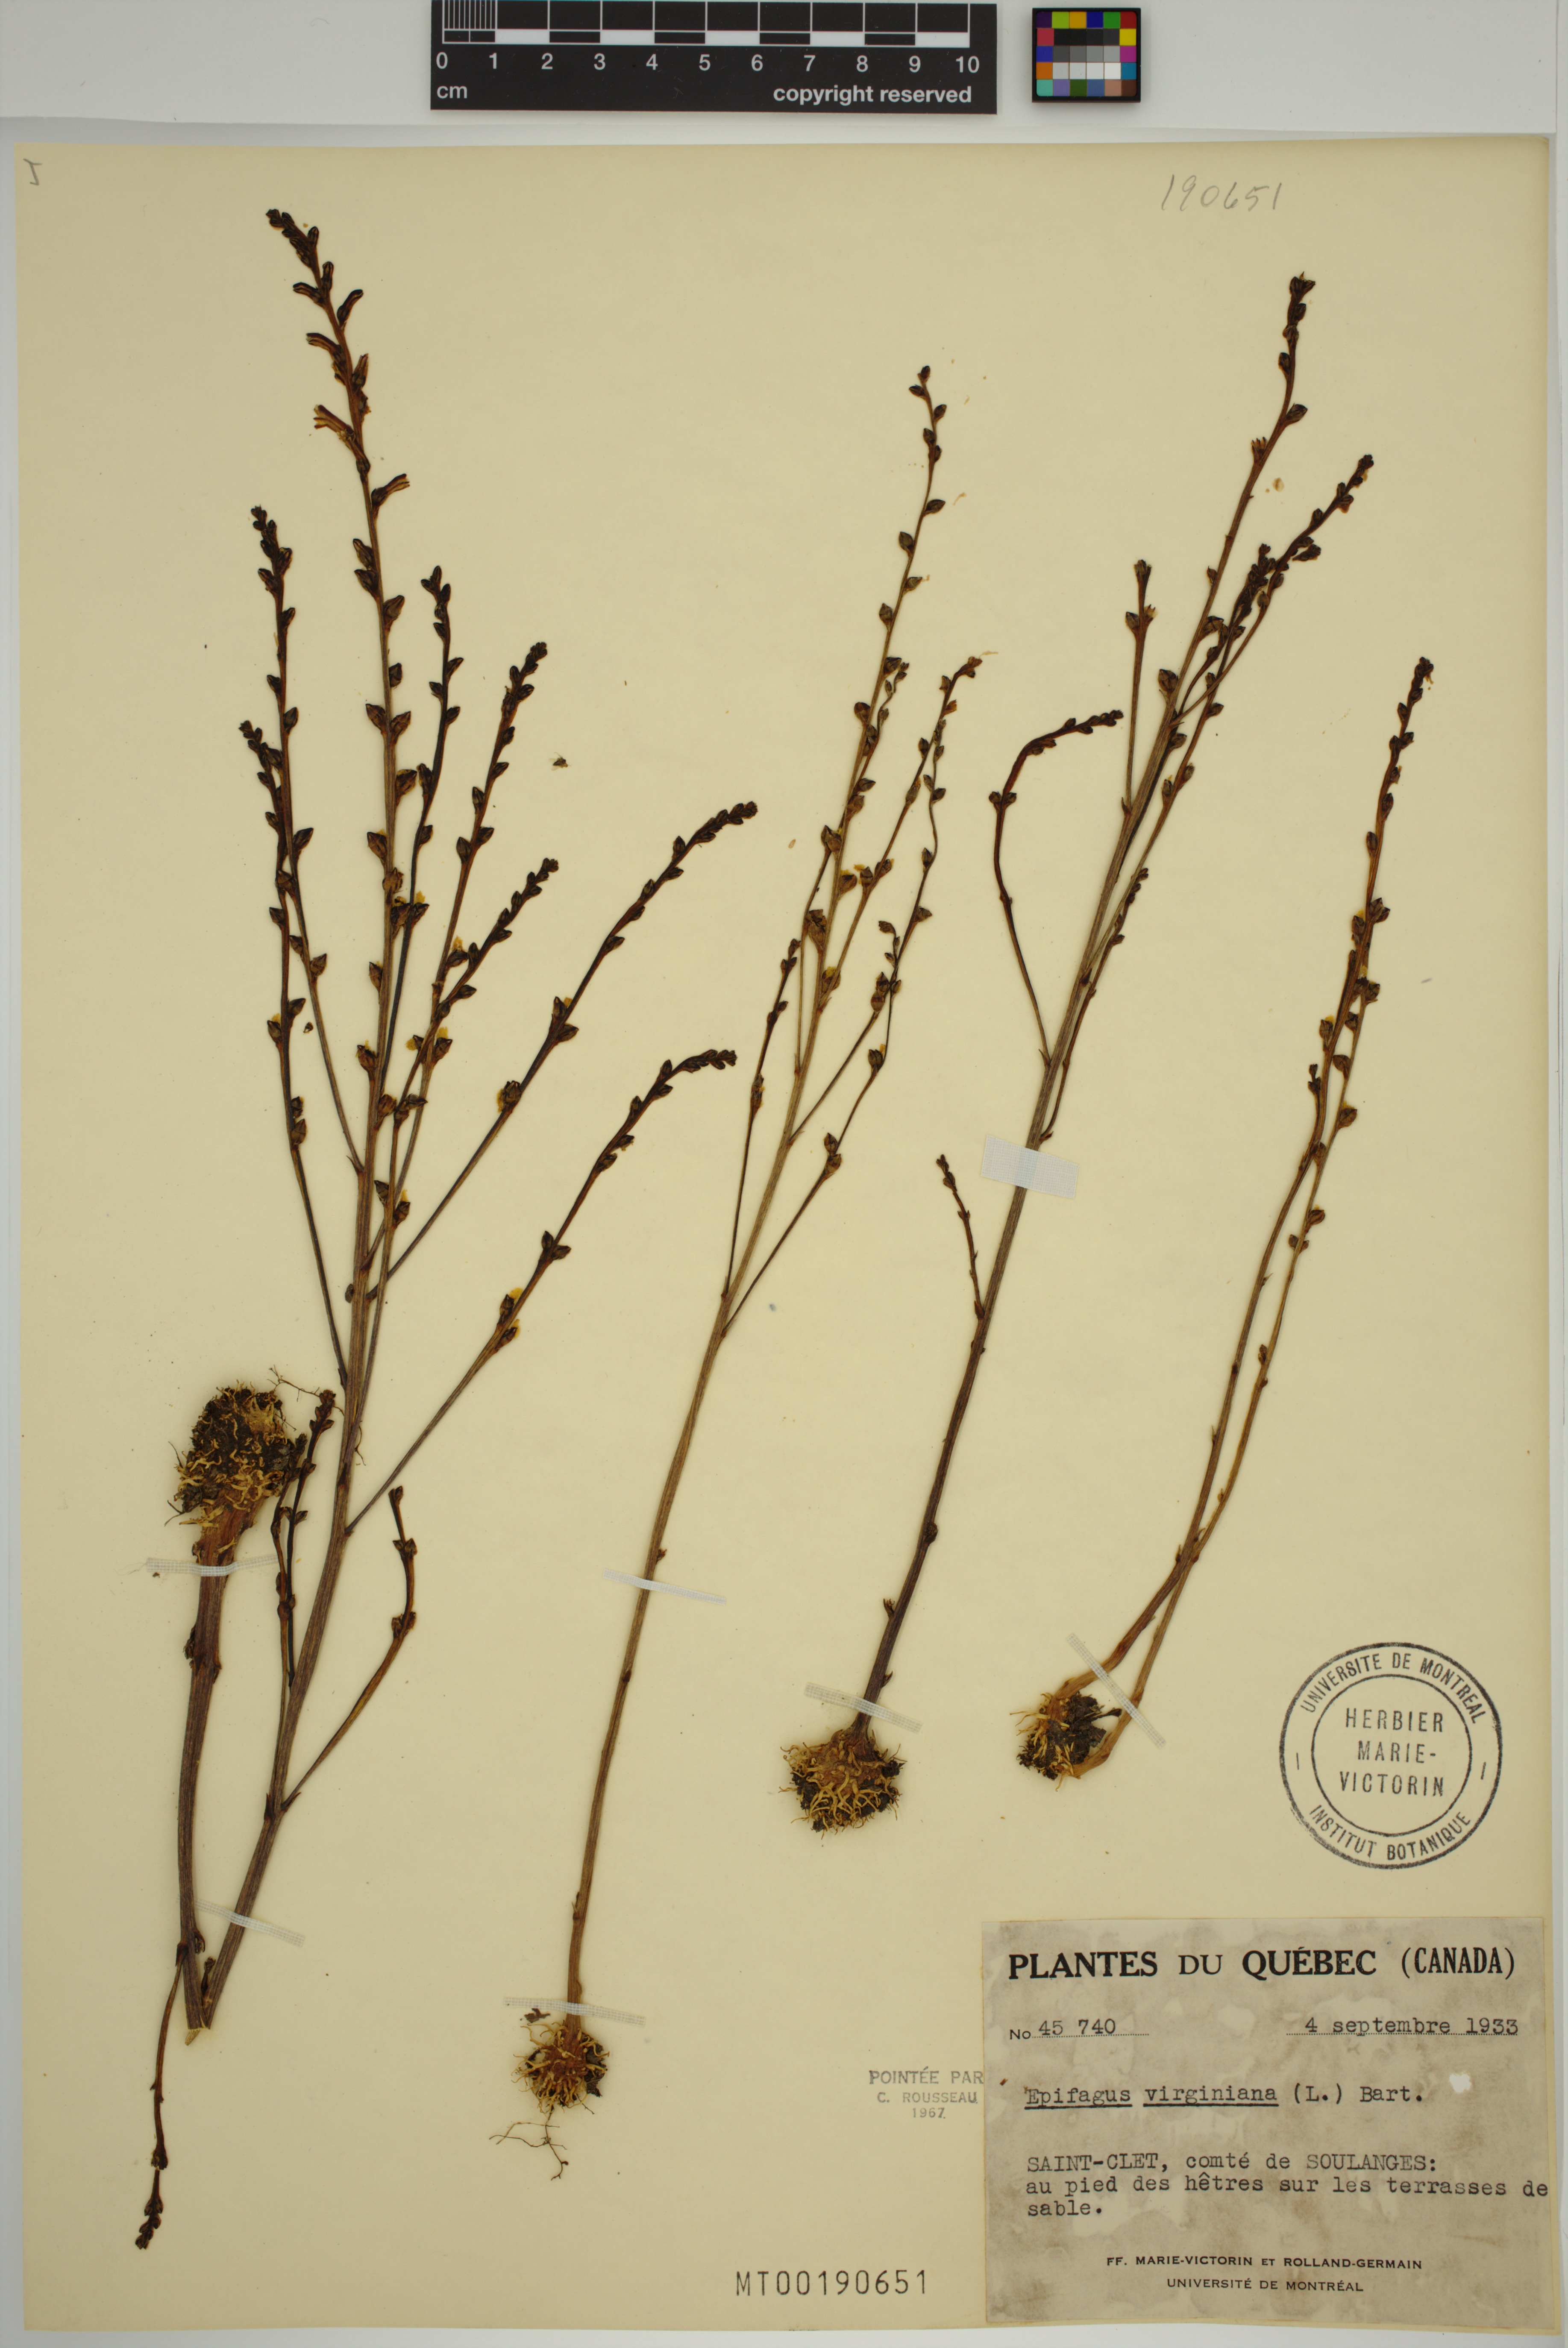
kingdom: Plantae
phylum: Tracheophyta
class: Magnoliopsida
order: Lamiales
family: Orobanchaceae
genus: Epifagus
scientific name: Epifagus virginiana
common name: Beechdrops
